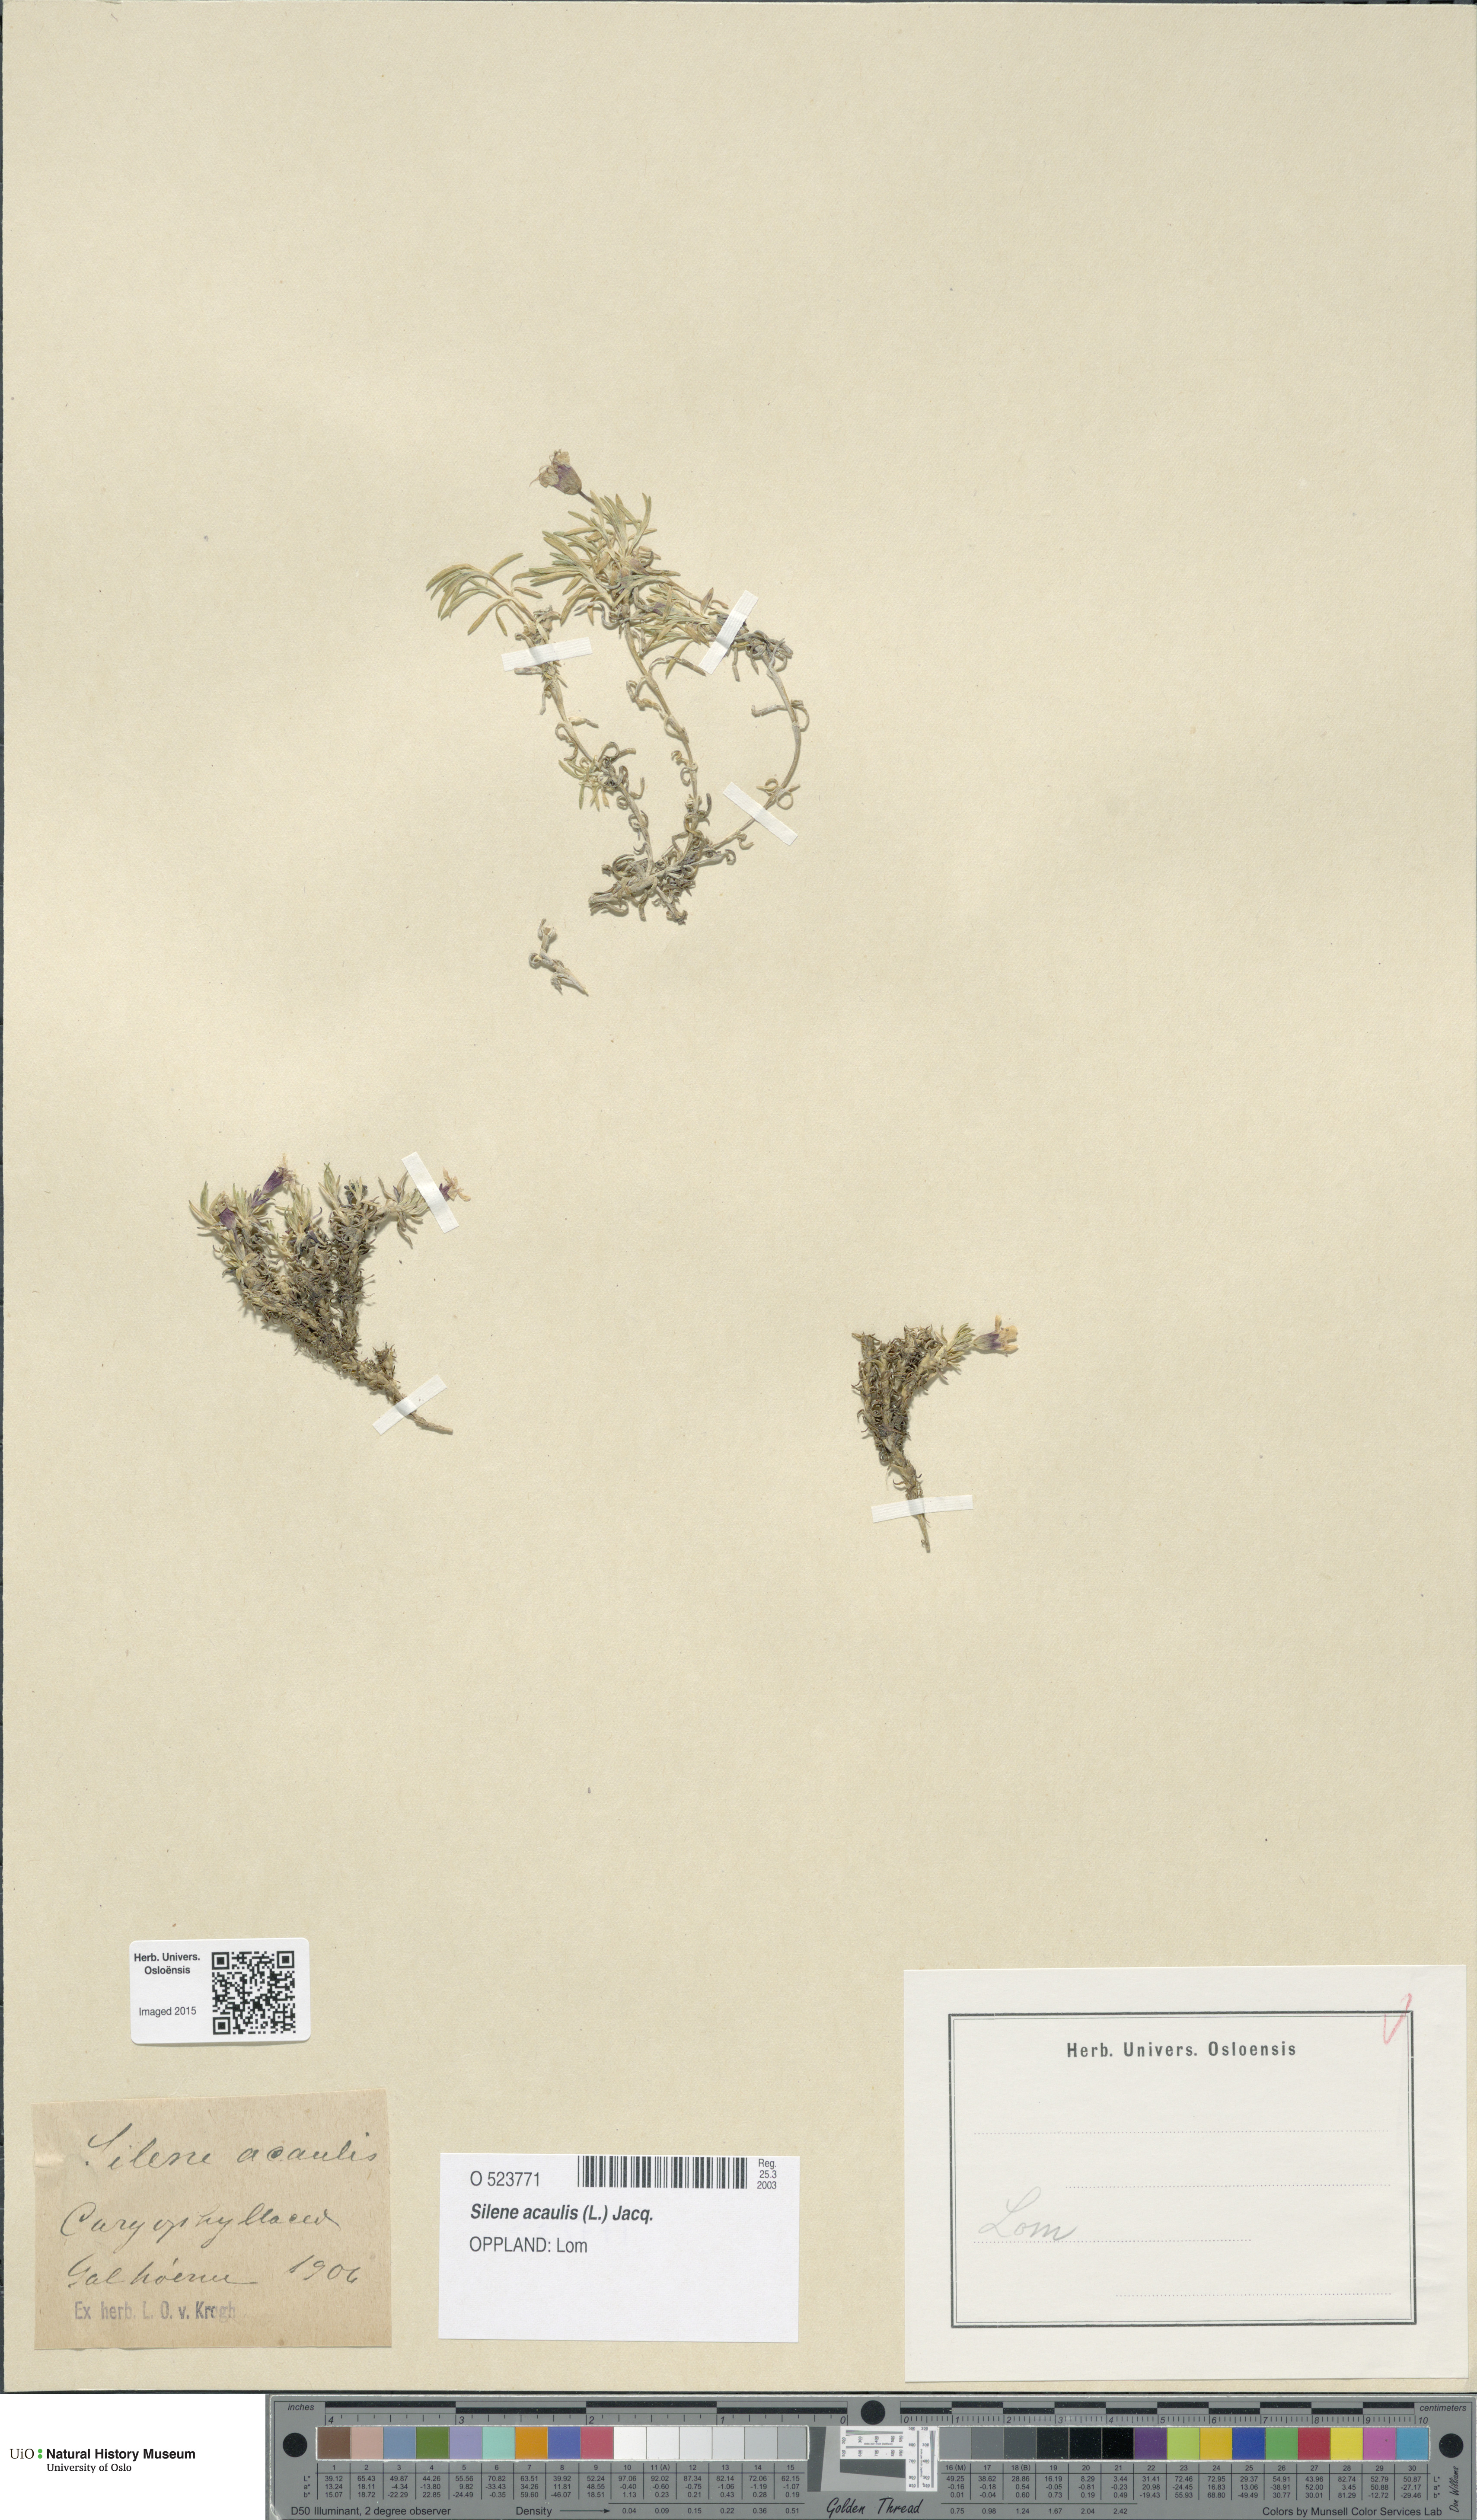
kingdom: Plantae
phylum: Tracheophyta
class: Magnoliopsida
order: Caryophyllales
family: Caryophyllaceae
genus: Silene
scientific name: Silene acaulis
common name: Moss campion
